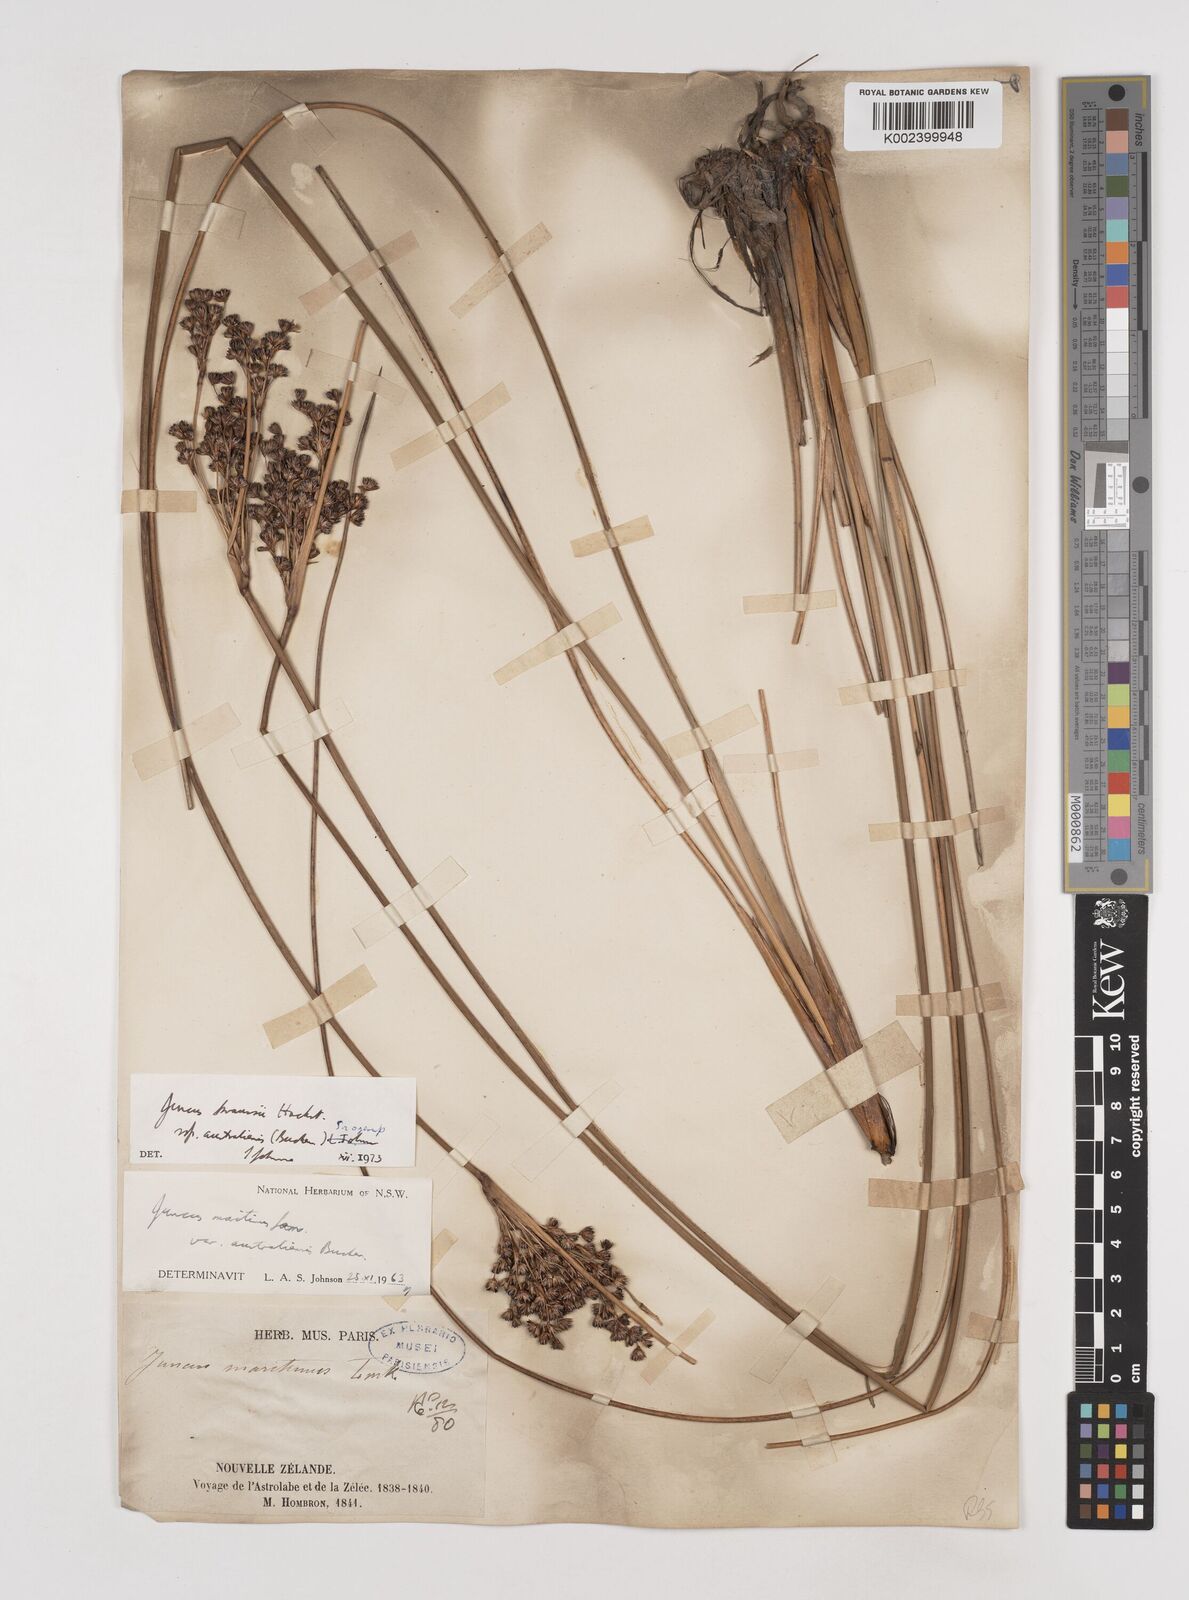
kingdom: Plantae
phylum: Tracheophyta
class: Liliopsida
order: Poales
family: Juncaceae
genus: Juncus
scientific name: Juncus kraussii
